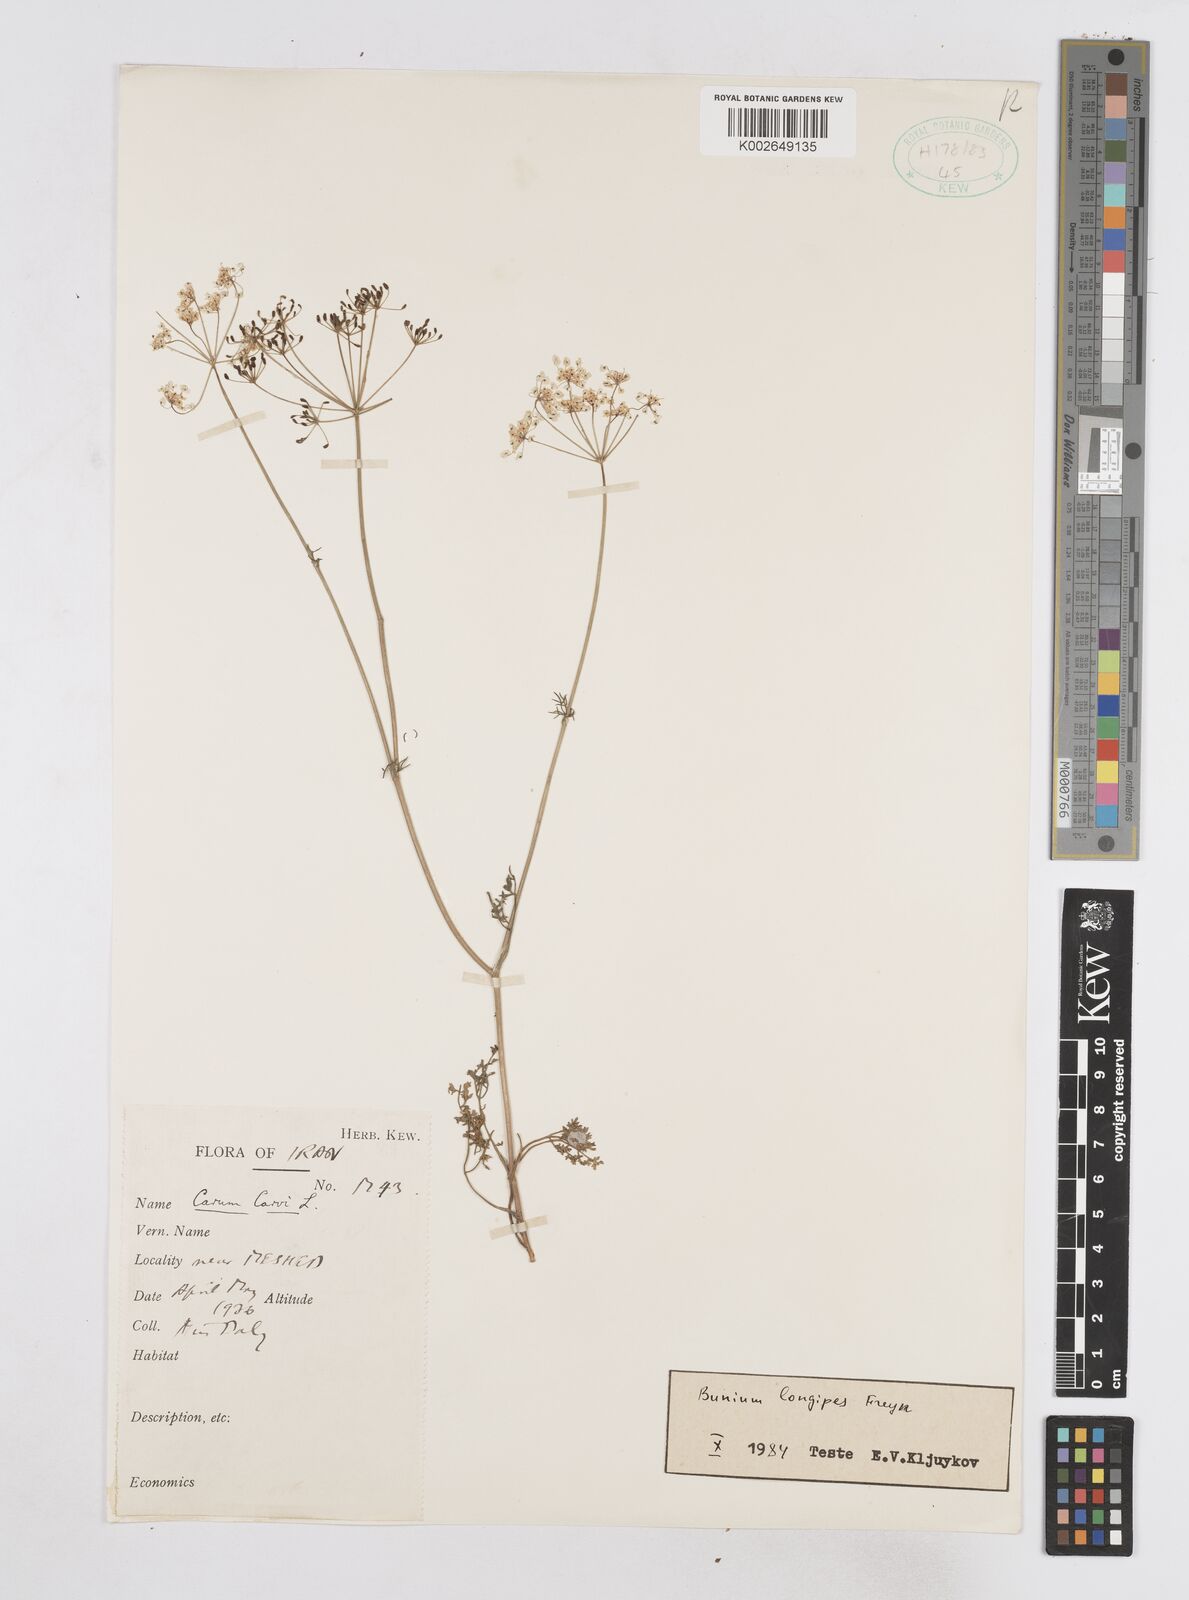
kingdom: Plantae
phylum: Tracheophyta
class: Magnoliopsida
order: Apiales
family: Apiaceae
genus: Elwendia
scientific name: Elwendia longipes
